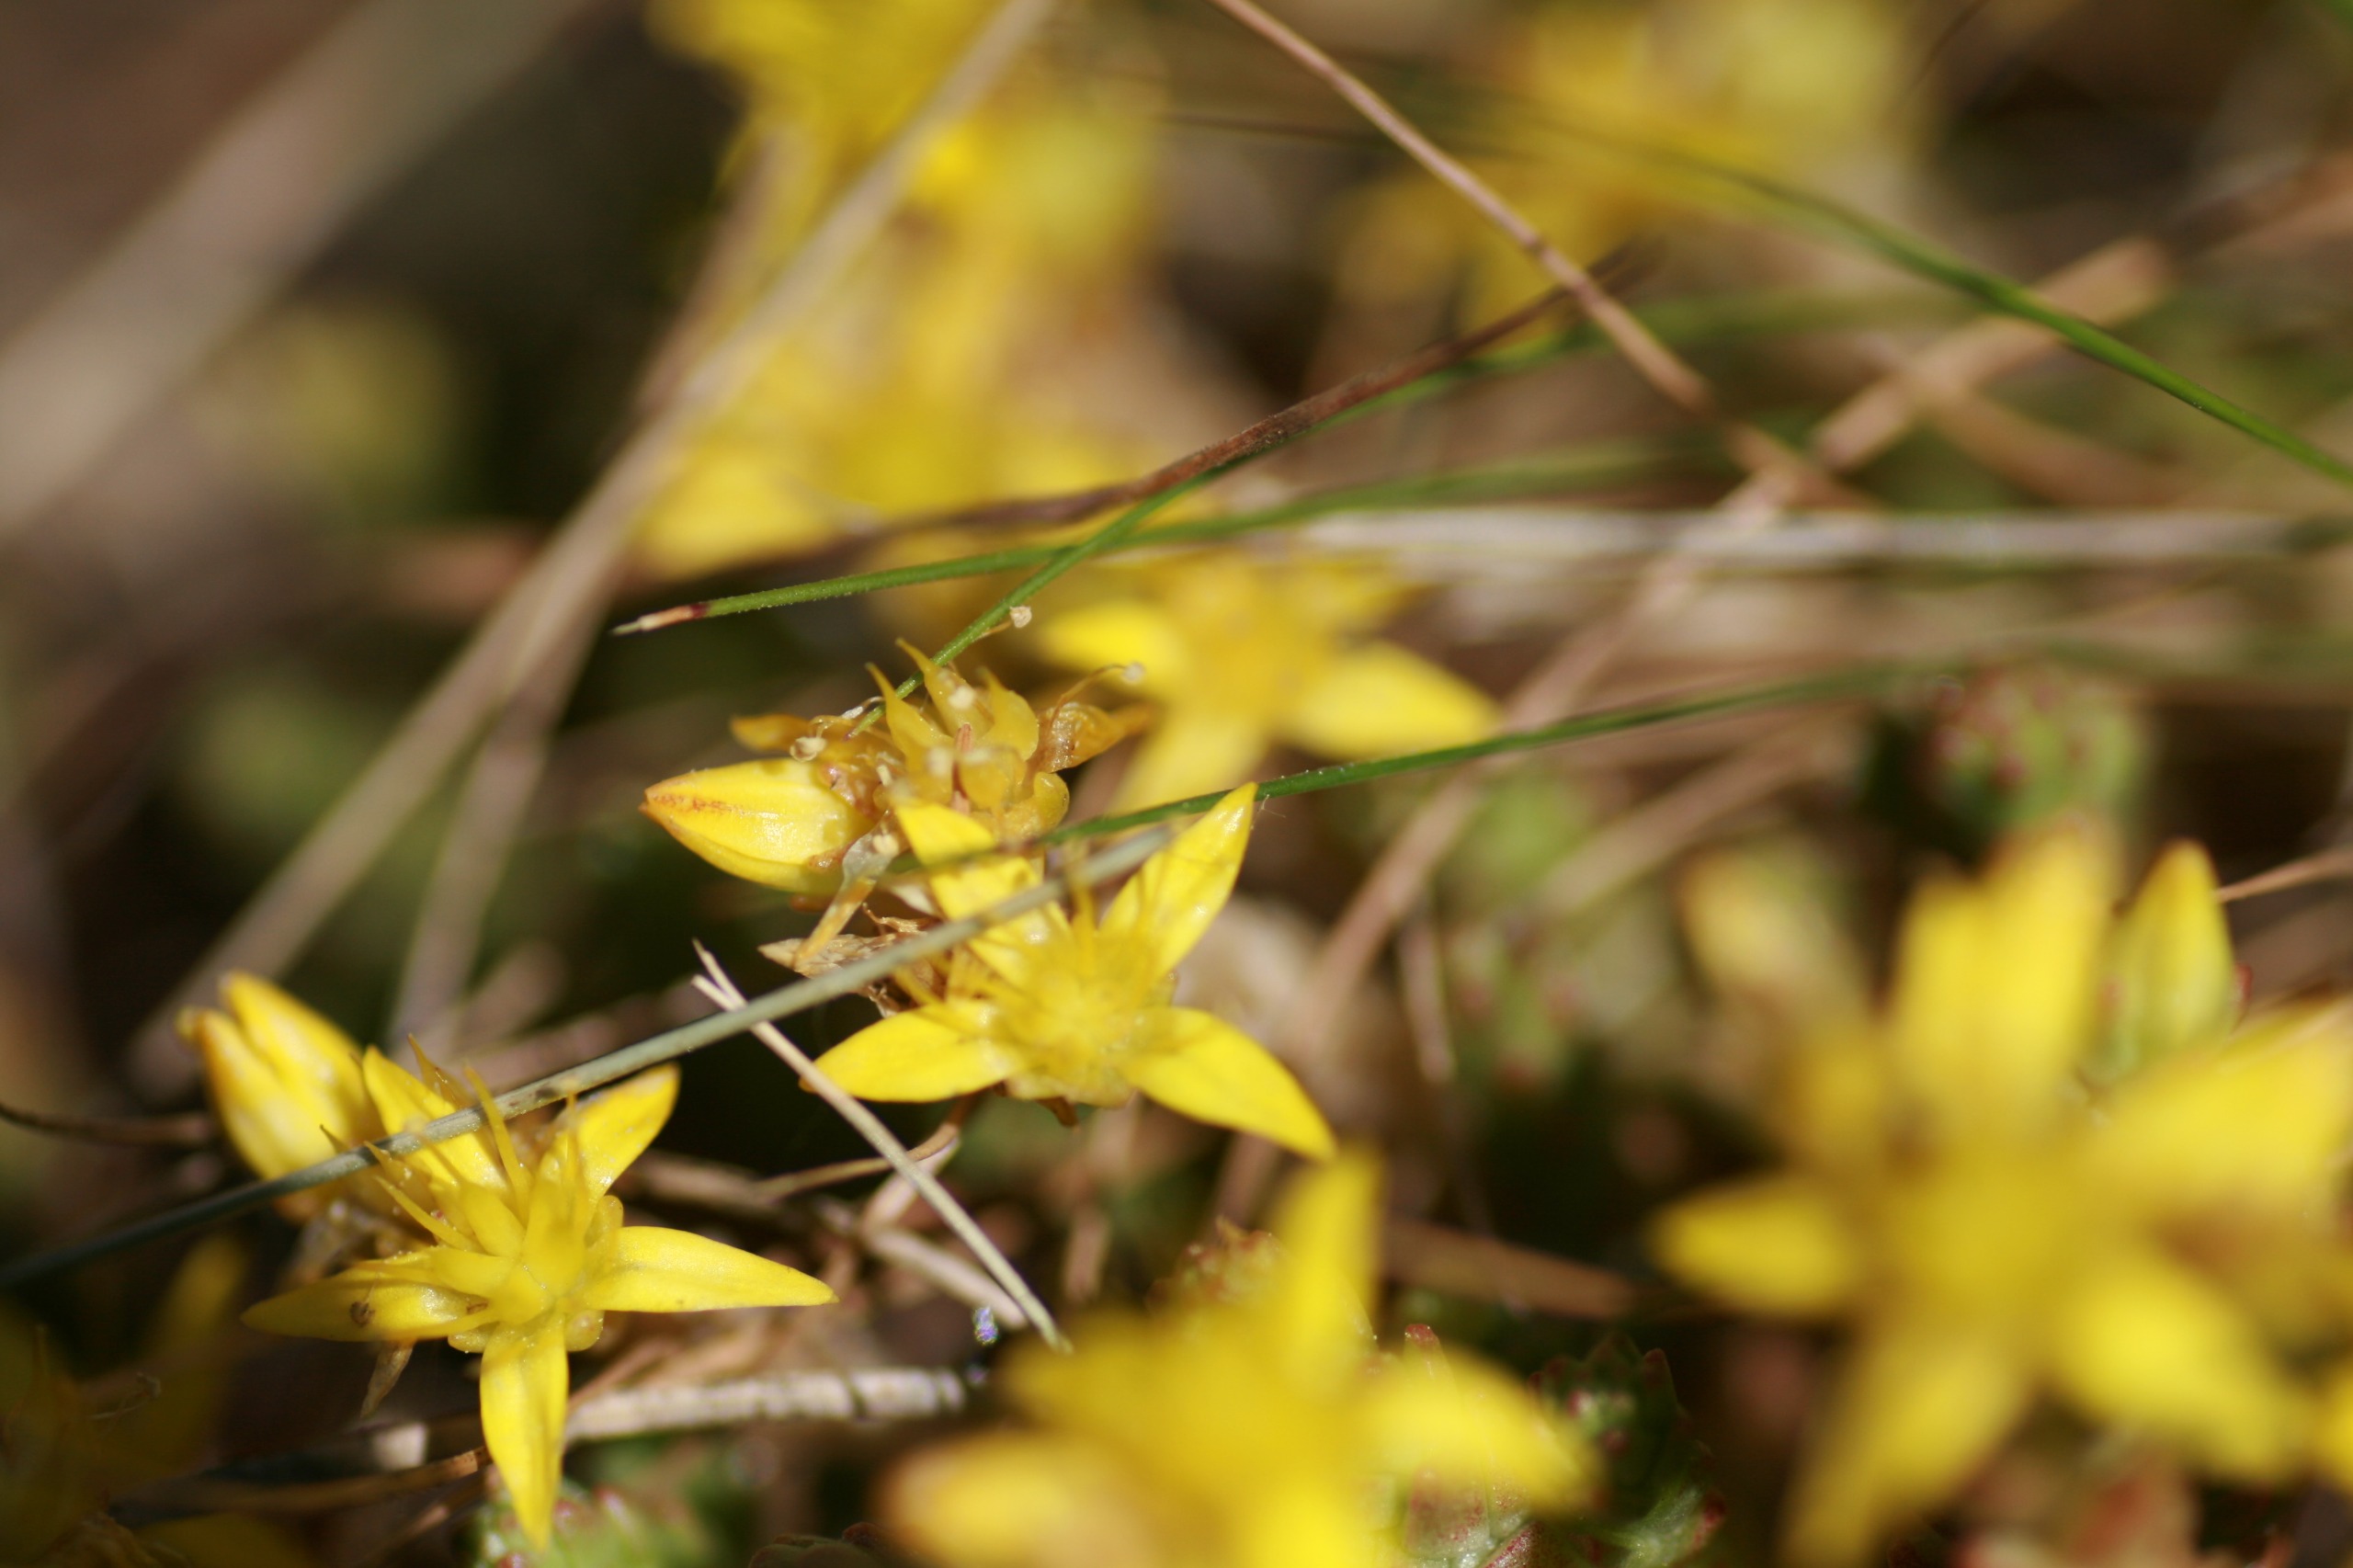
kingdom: Plantae
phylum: Tracheophyta
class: Magnoliopsida
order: Saxifragales
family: Crassulaceae
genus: Sedum
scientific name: Sedum acre
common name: Bidende stenurt
